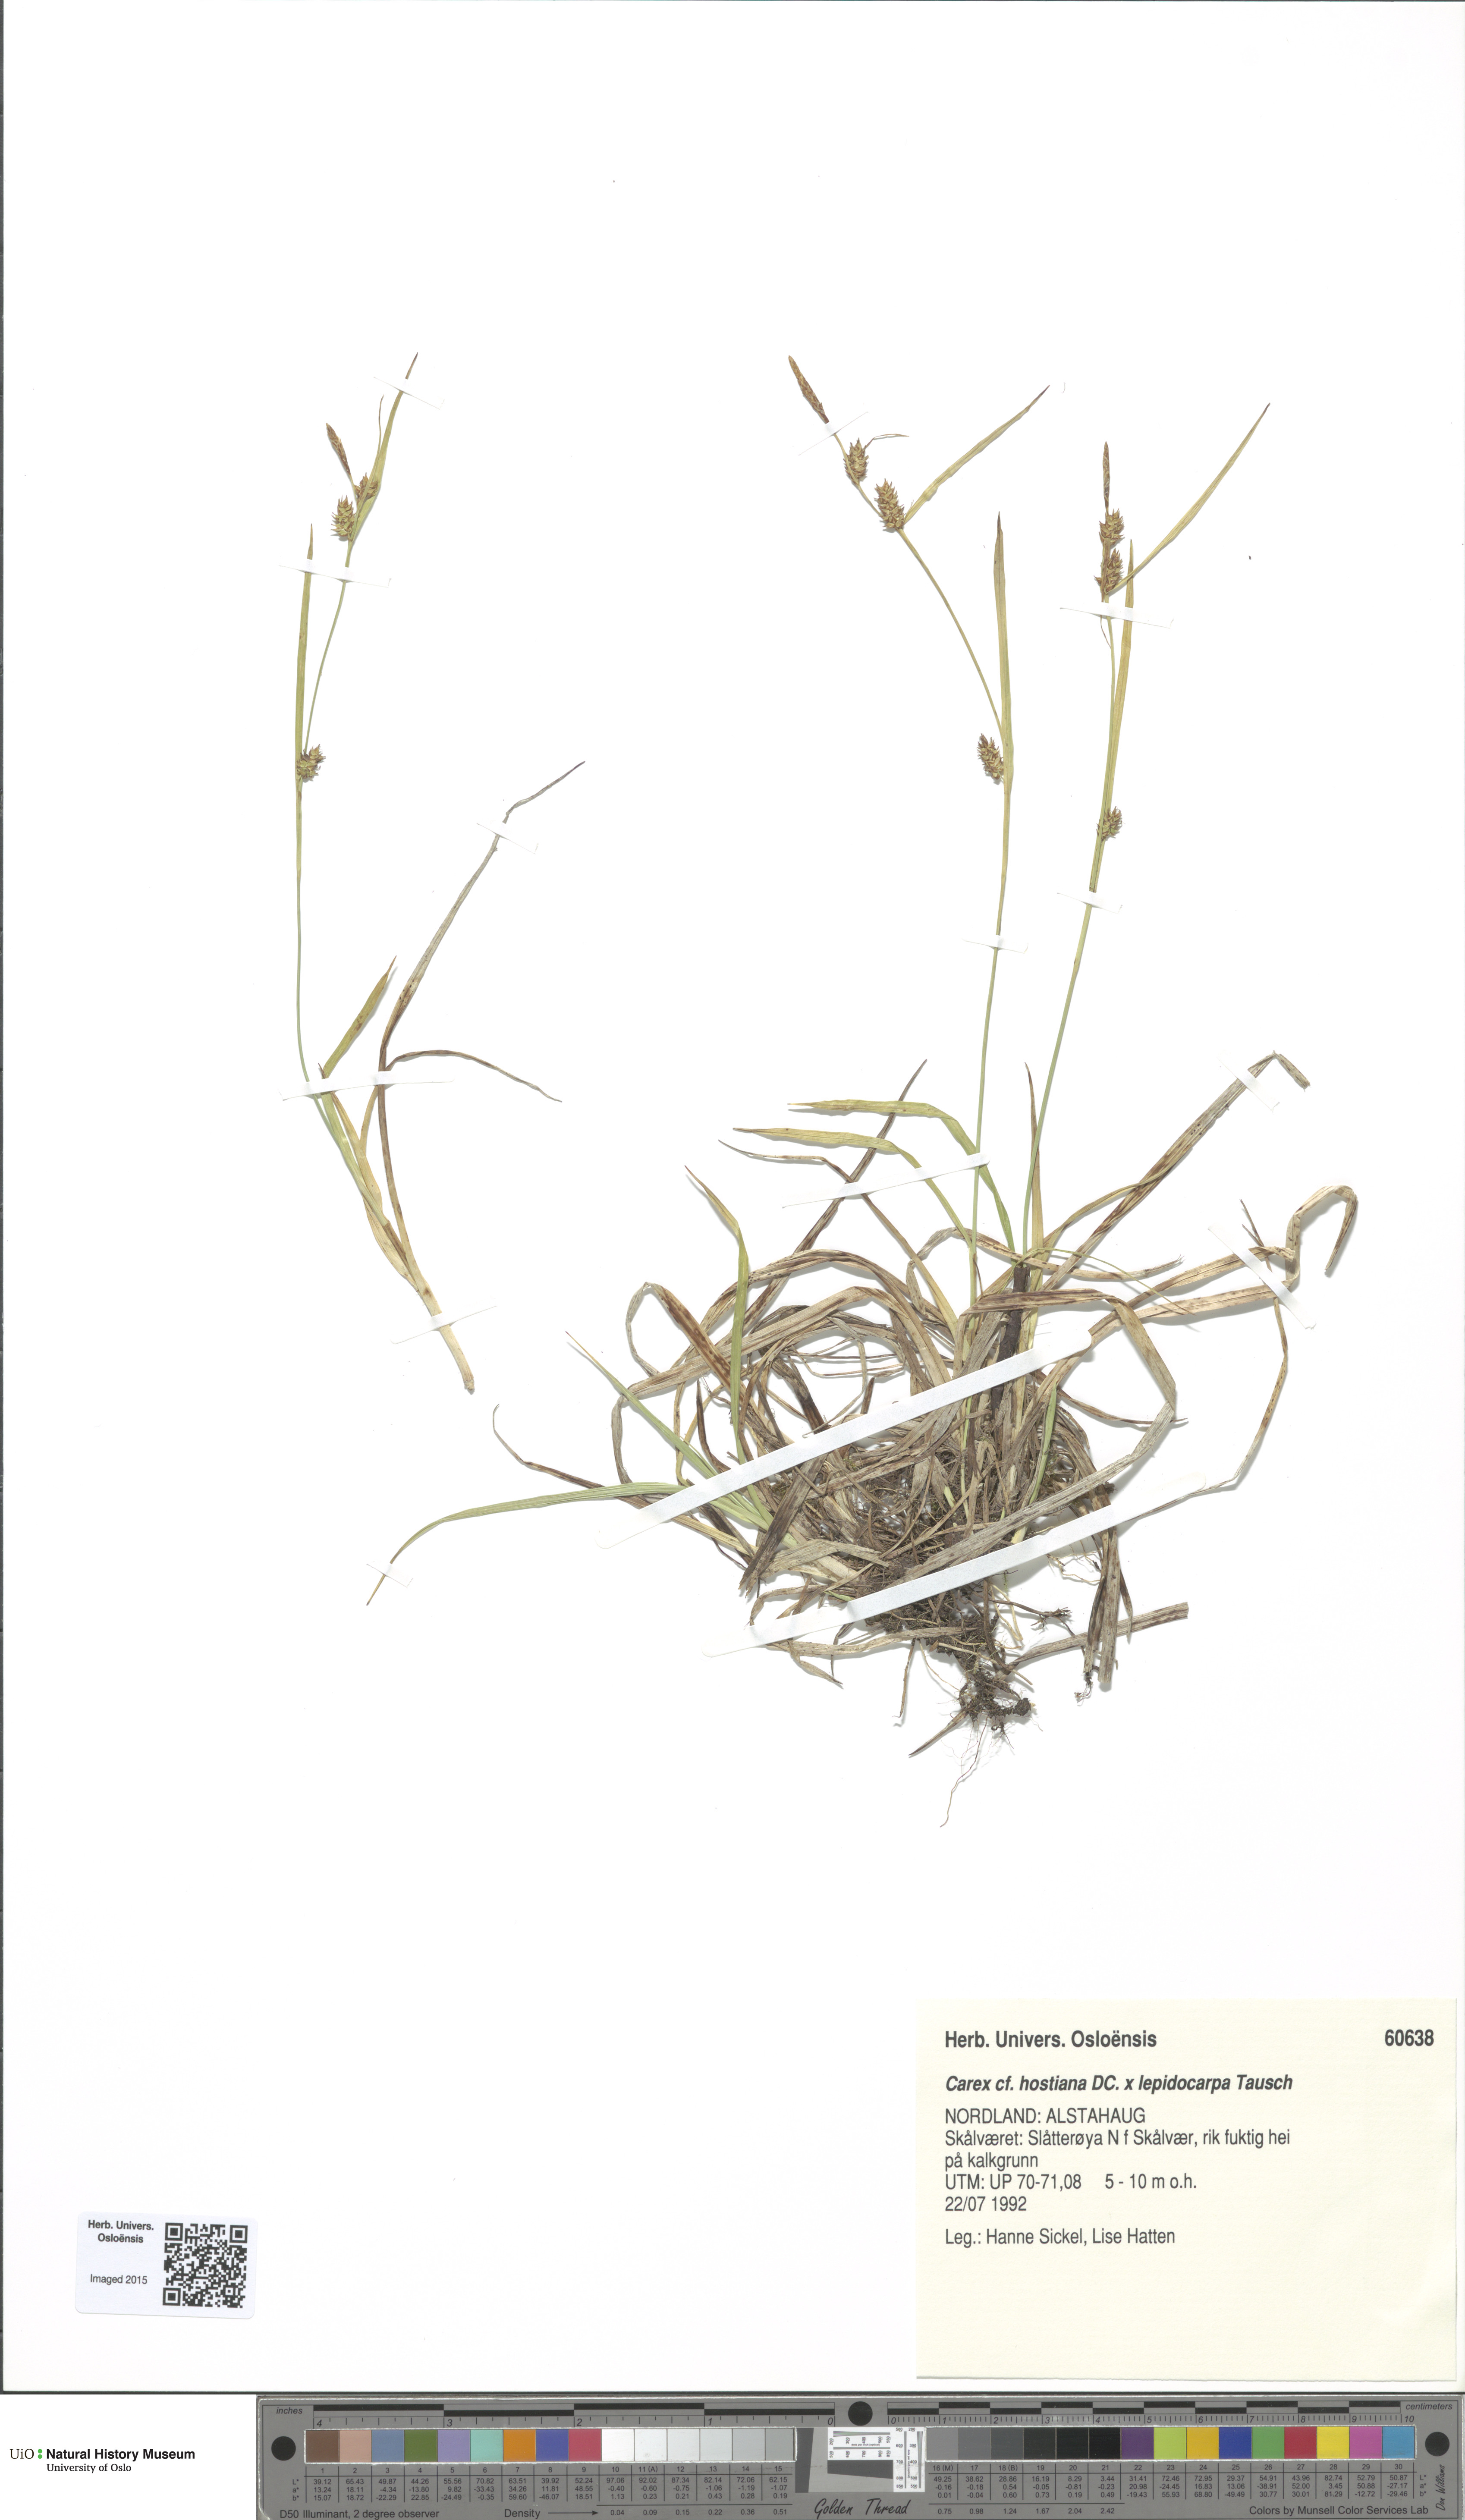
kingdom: Plantae
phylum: Tracheophyta
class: Liliopsida
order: Poales
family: Cyperaceae
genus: Carex
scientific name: Carex
